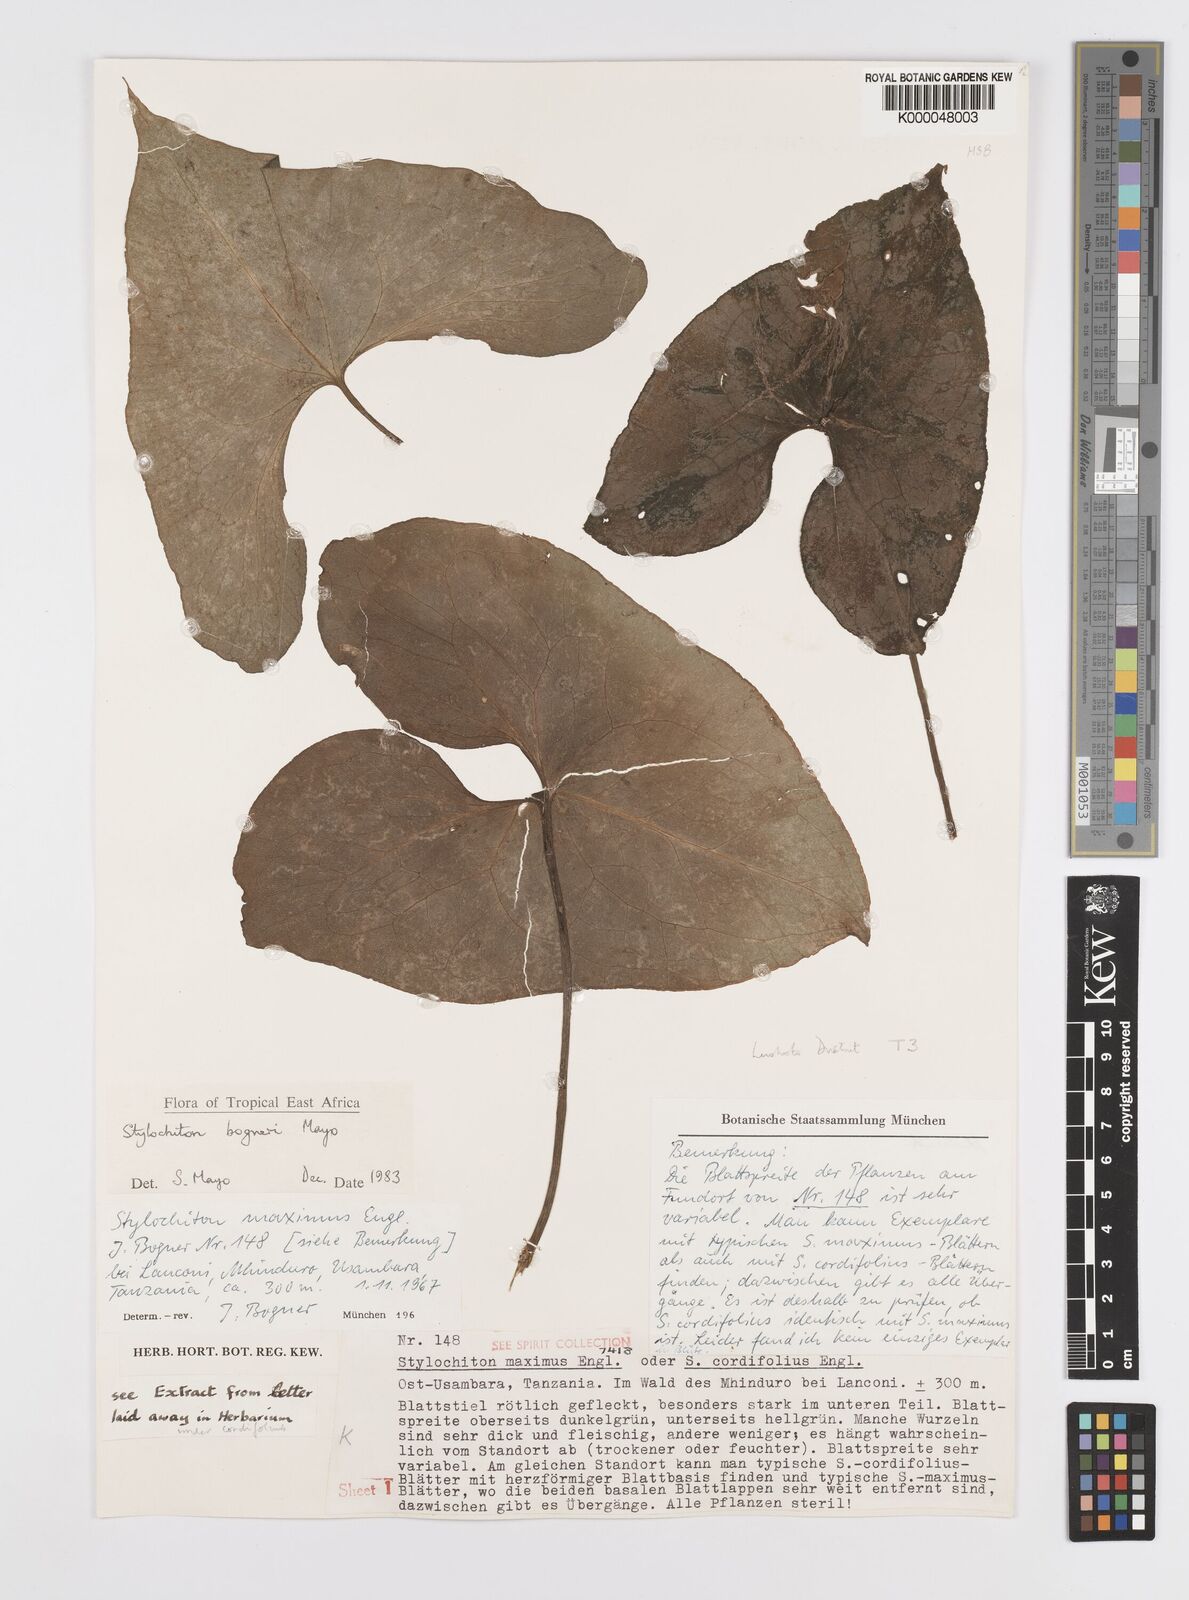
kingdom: Plantae
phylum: Tracheophyta
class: Liliopsida
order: Alismatales
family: Araceae
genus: Stylochaeton
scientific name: Stylochaeton bogneri
